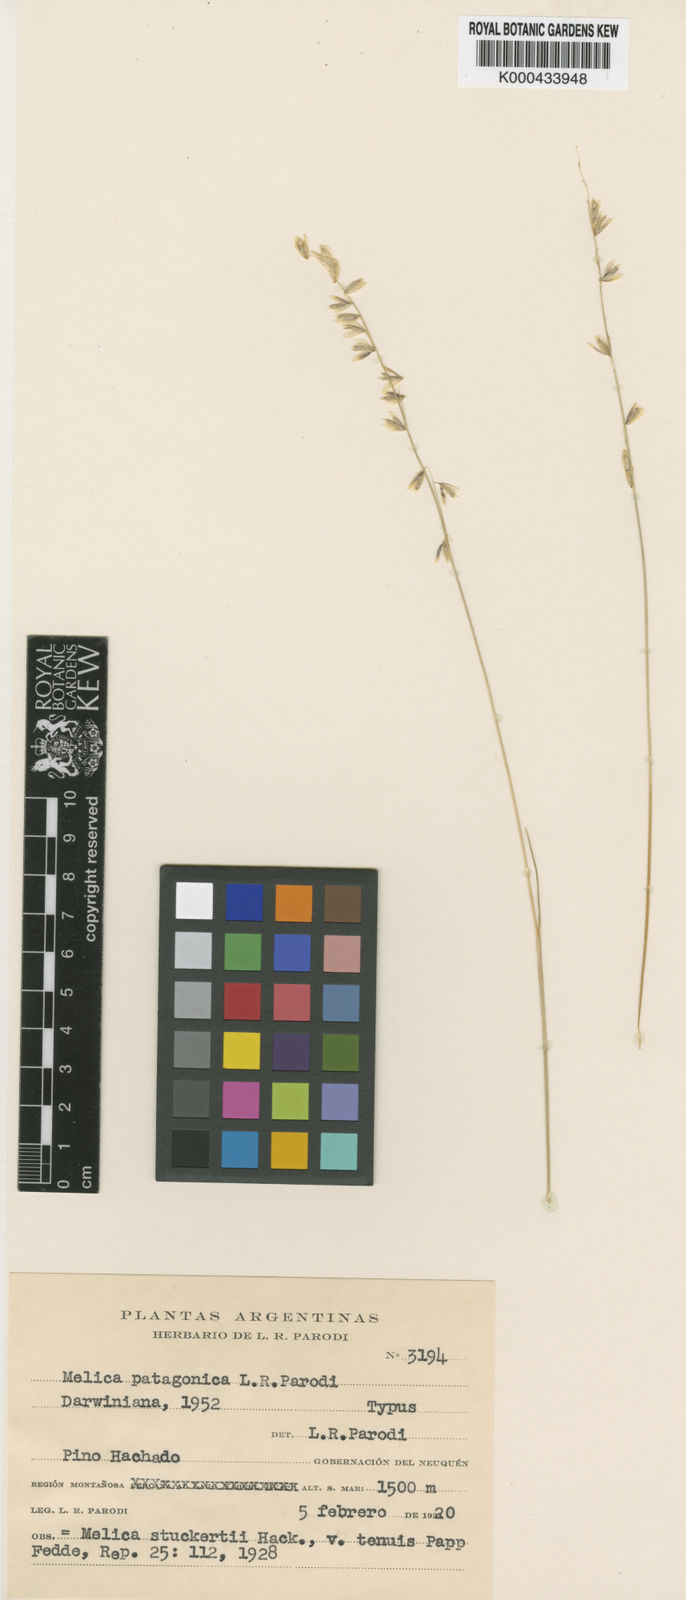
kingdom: Plantae
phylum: Tracheophyta
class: Liliopsida
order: Poales
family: Poaceae
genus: Melica
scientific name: Melica patagonica
